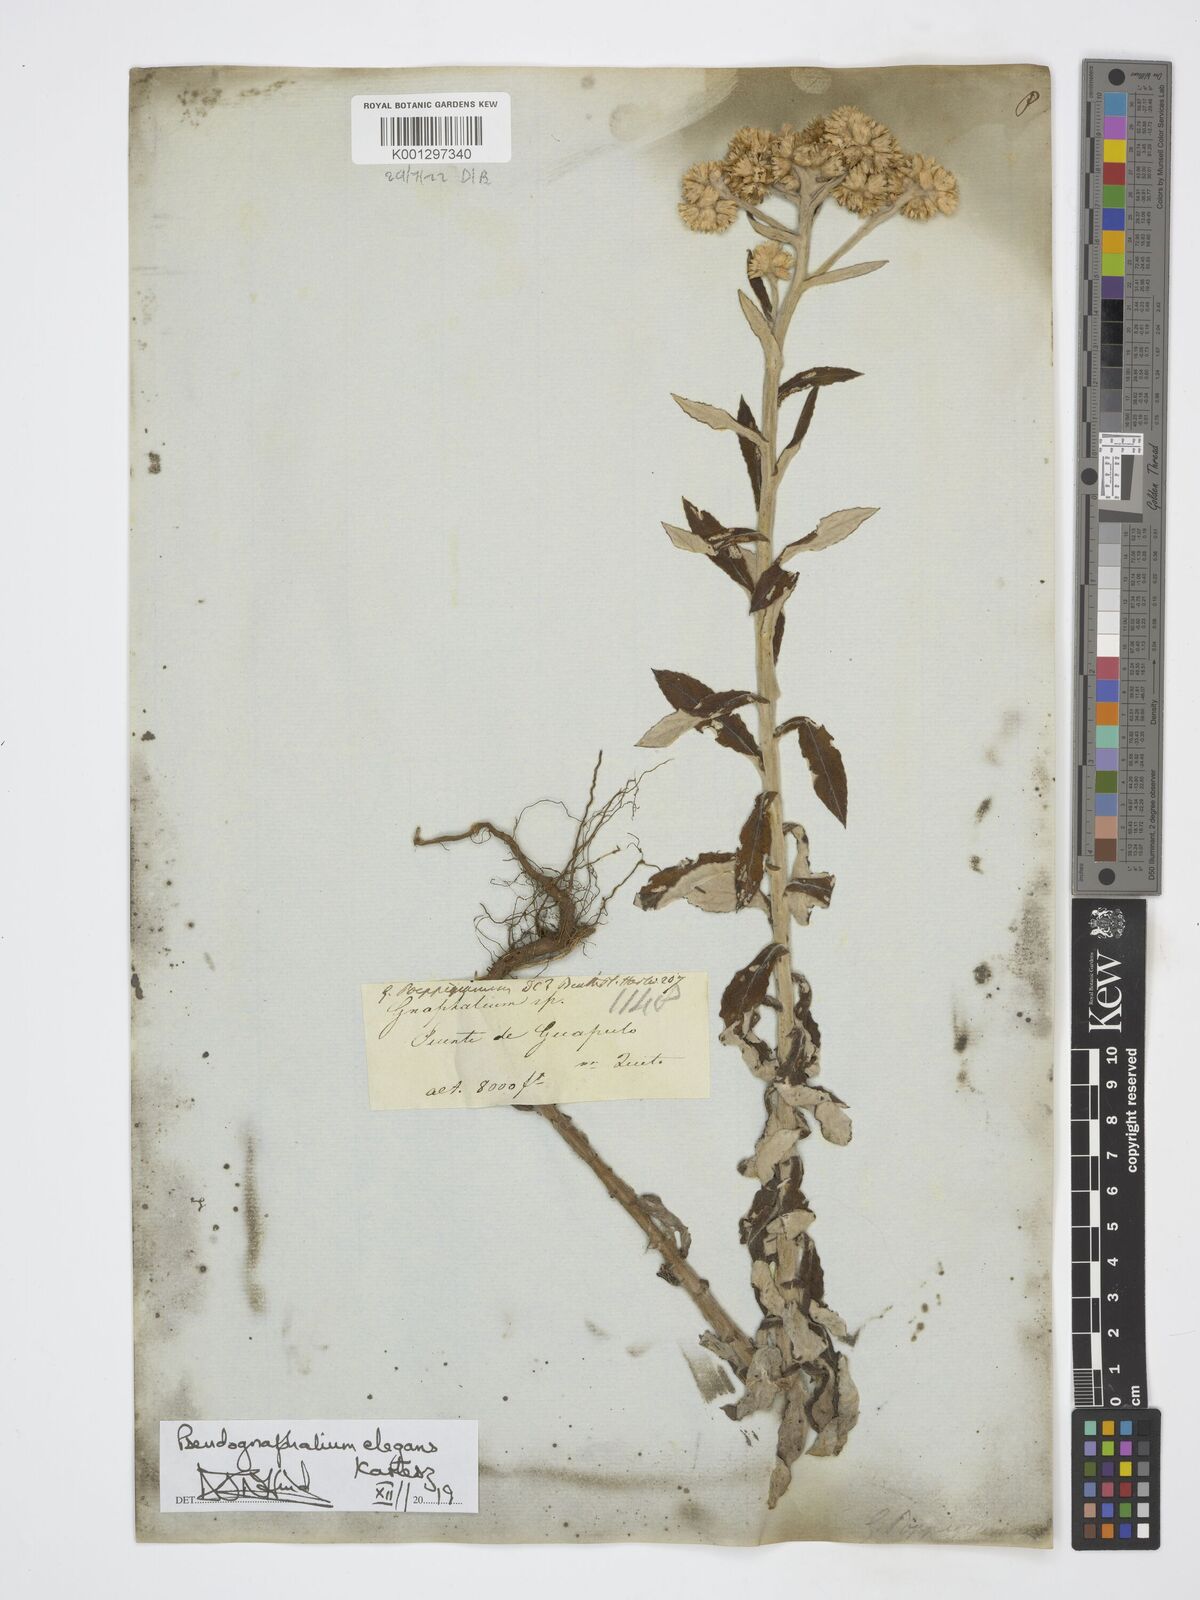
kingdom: Plantae
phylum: Tracheophyta
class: Magnoliopsida
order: Asterales
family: Asteraceae
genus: Pseudognaphalium
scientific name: Pseudognaphalium domingense
